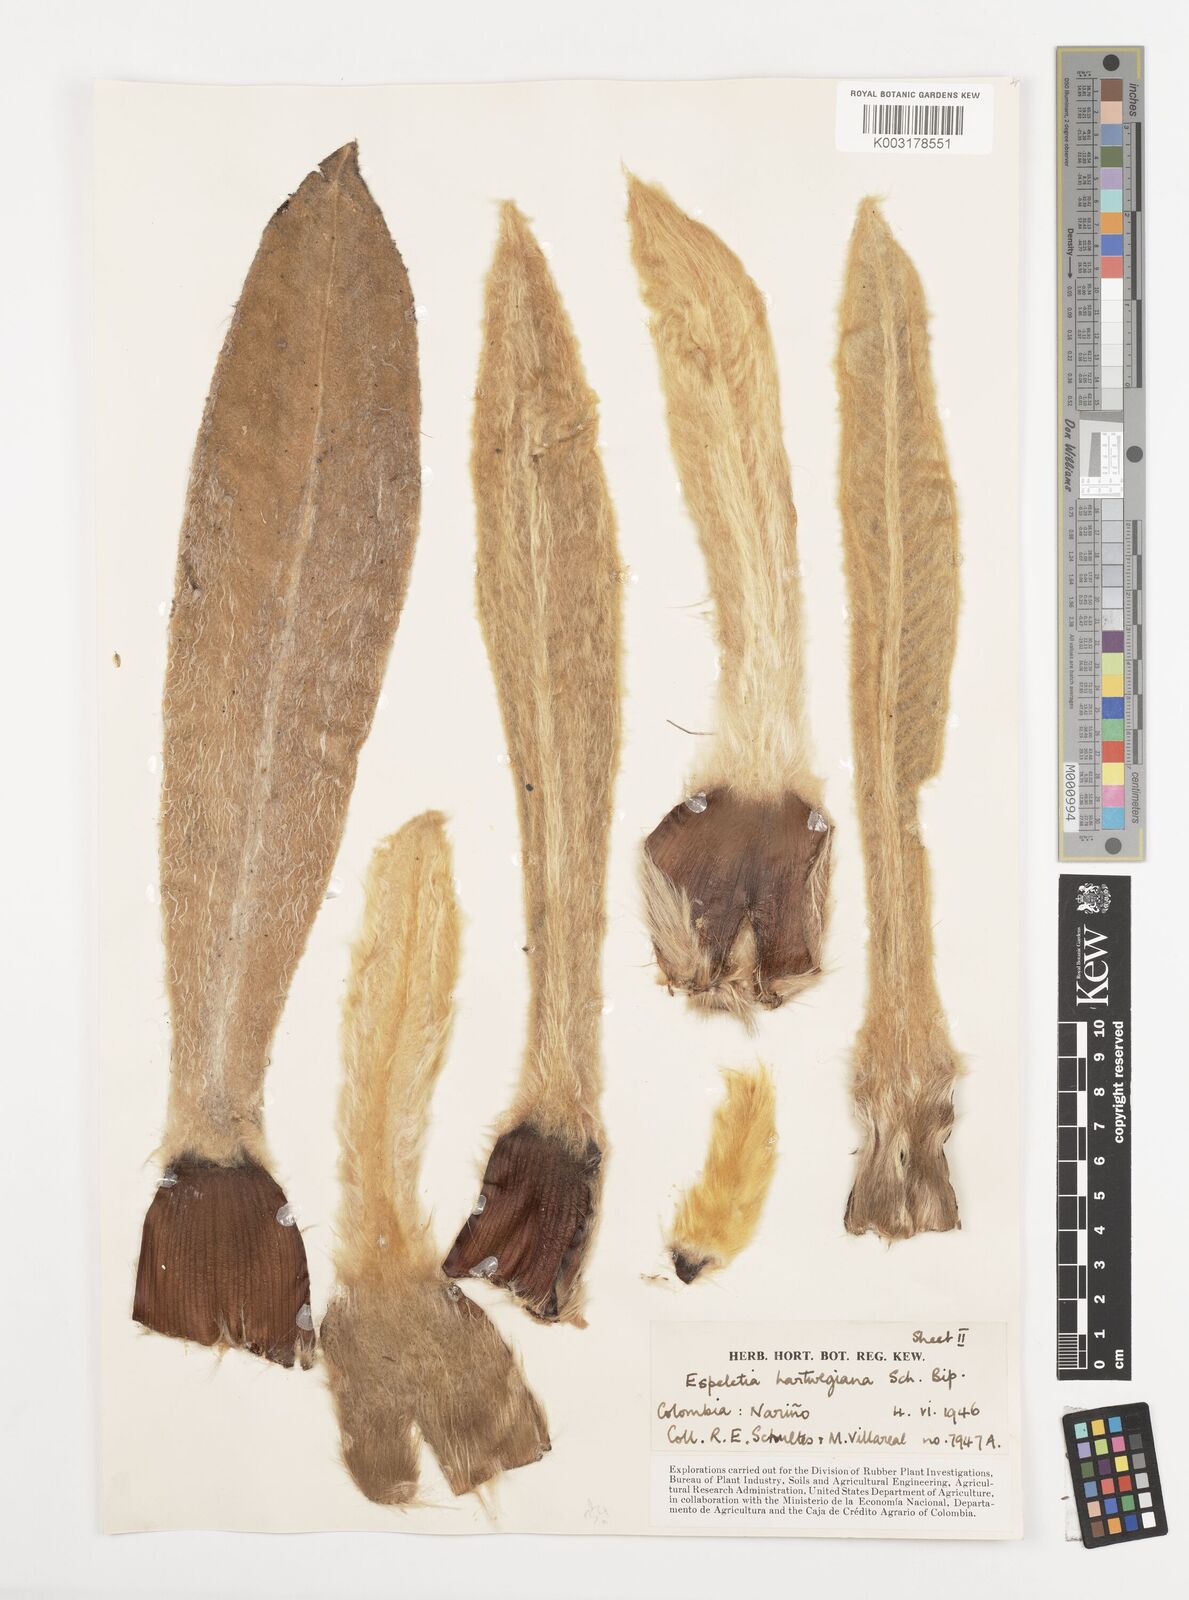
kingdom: Plantae
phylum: Tracheophyta
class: Magnoliopsida
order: Asterales
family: Asteraceae
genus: Espeletia
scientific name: Espeletia hartwegiana
